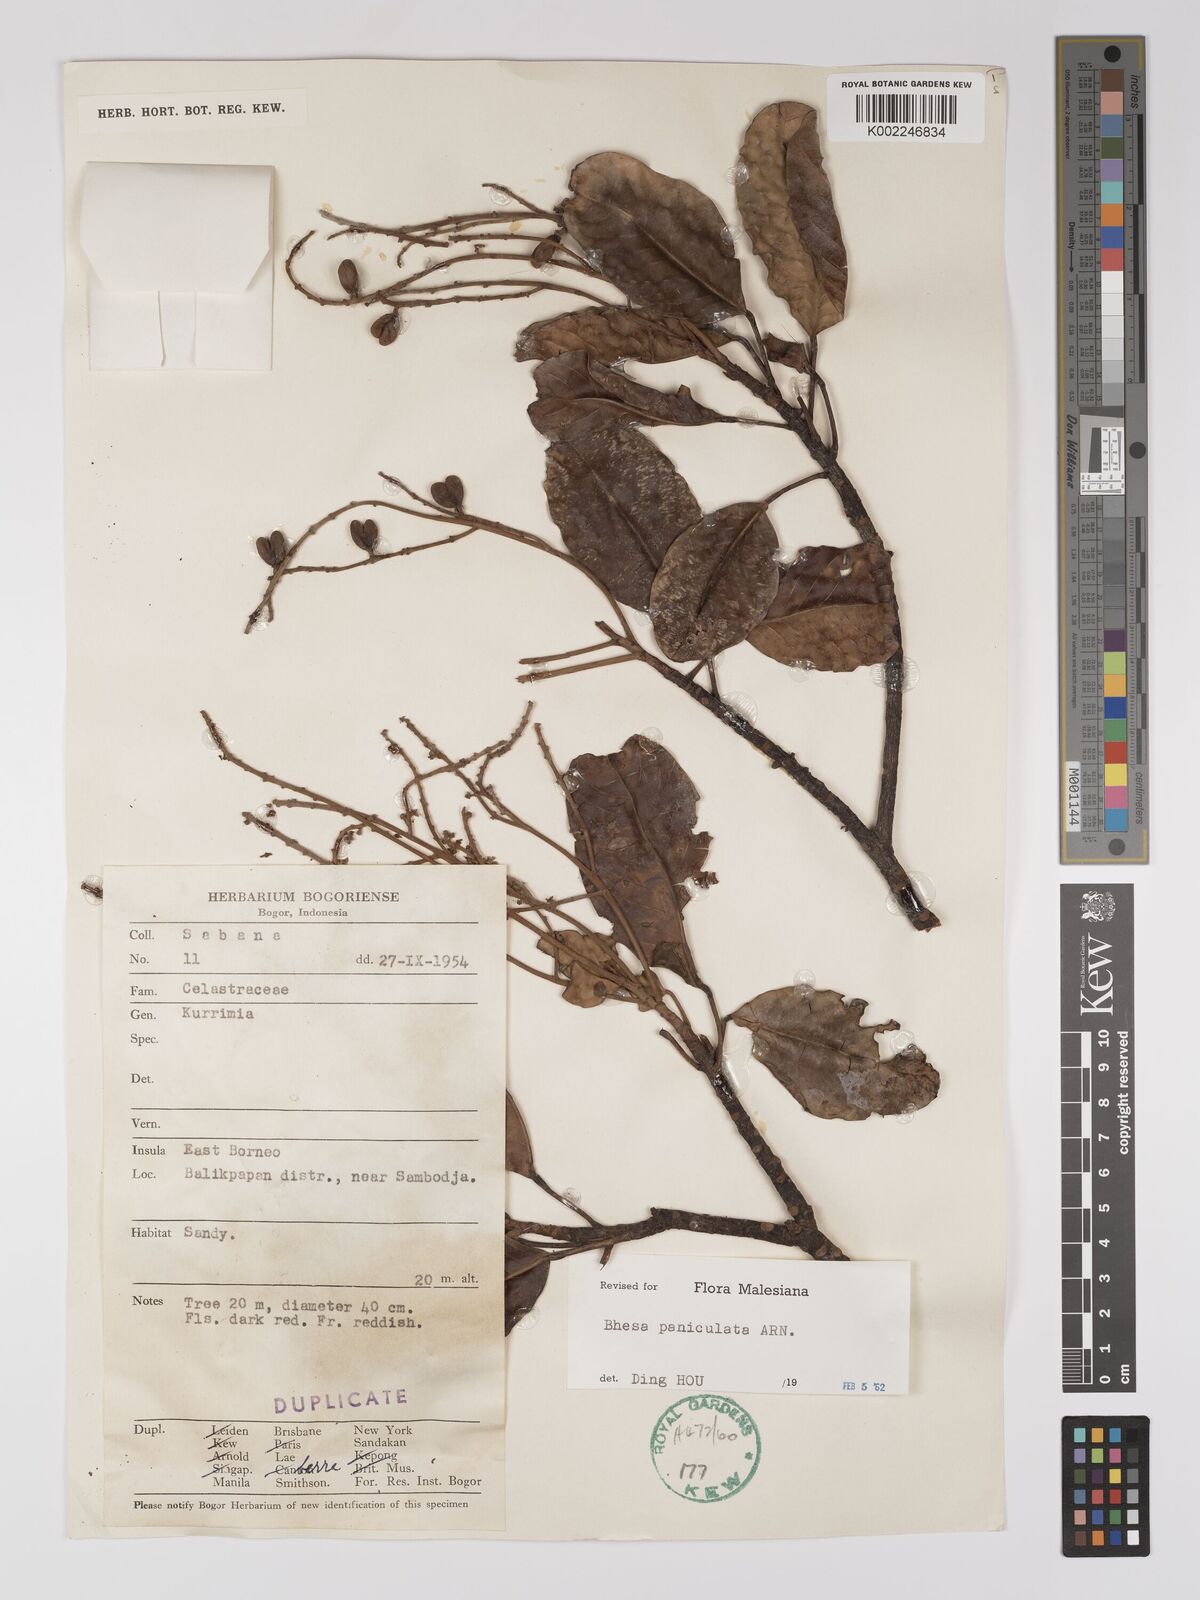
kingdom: Plantae
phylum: Tracheophyta
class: Magnoliopsida
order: Malpighiales
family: Centroplacaceae
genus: Bhesa
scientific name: Bhesa paniculata
